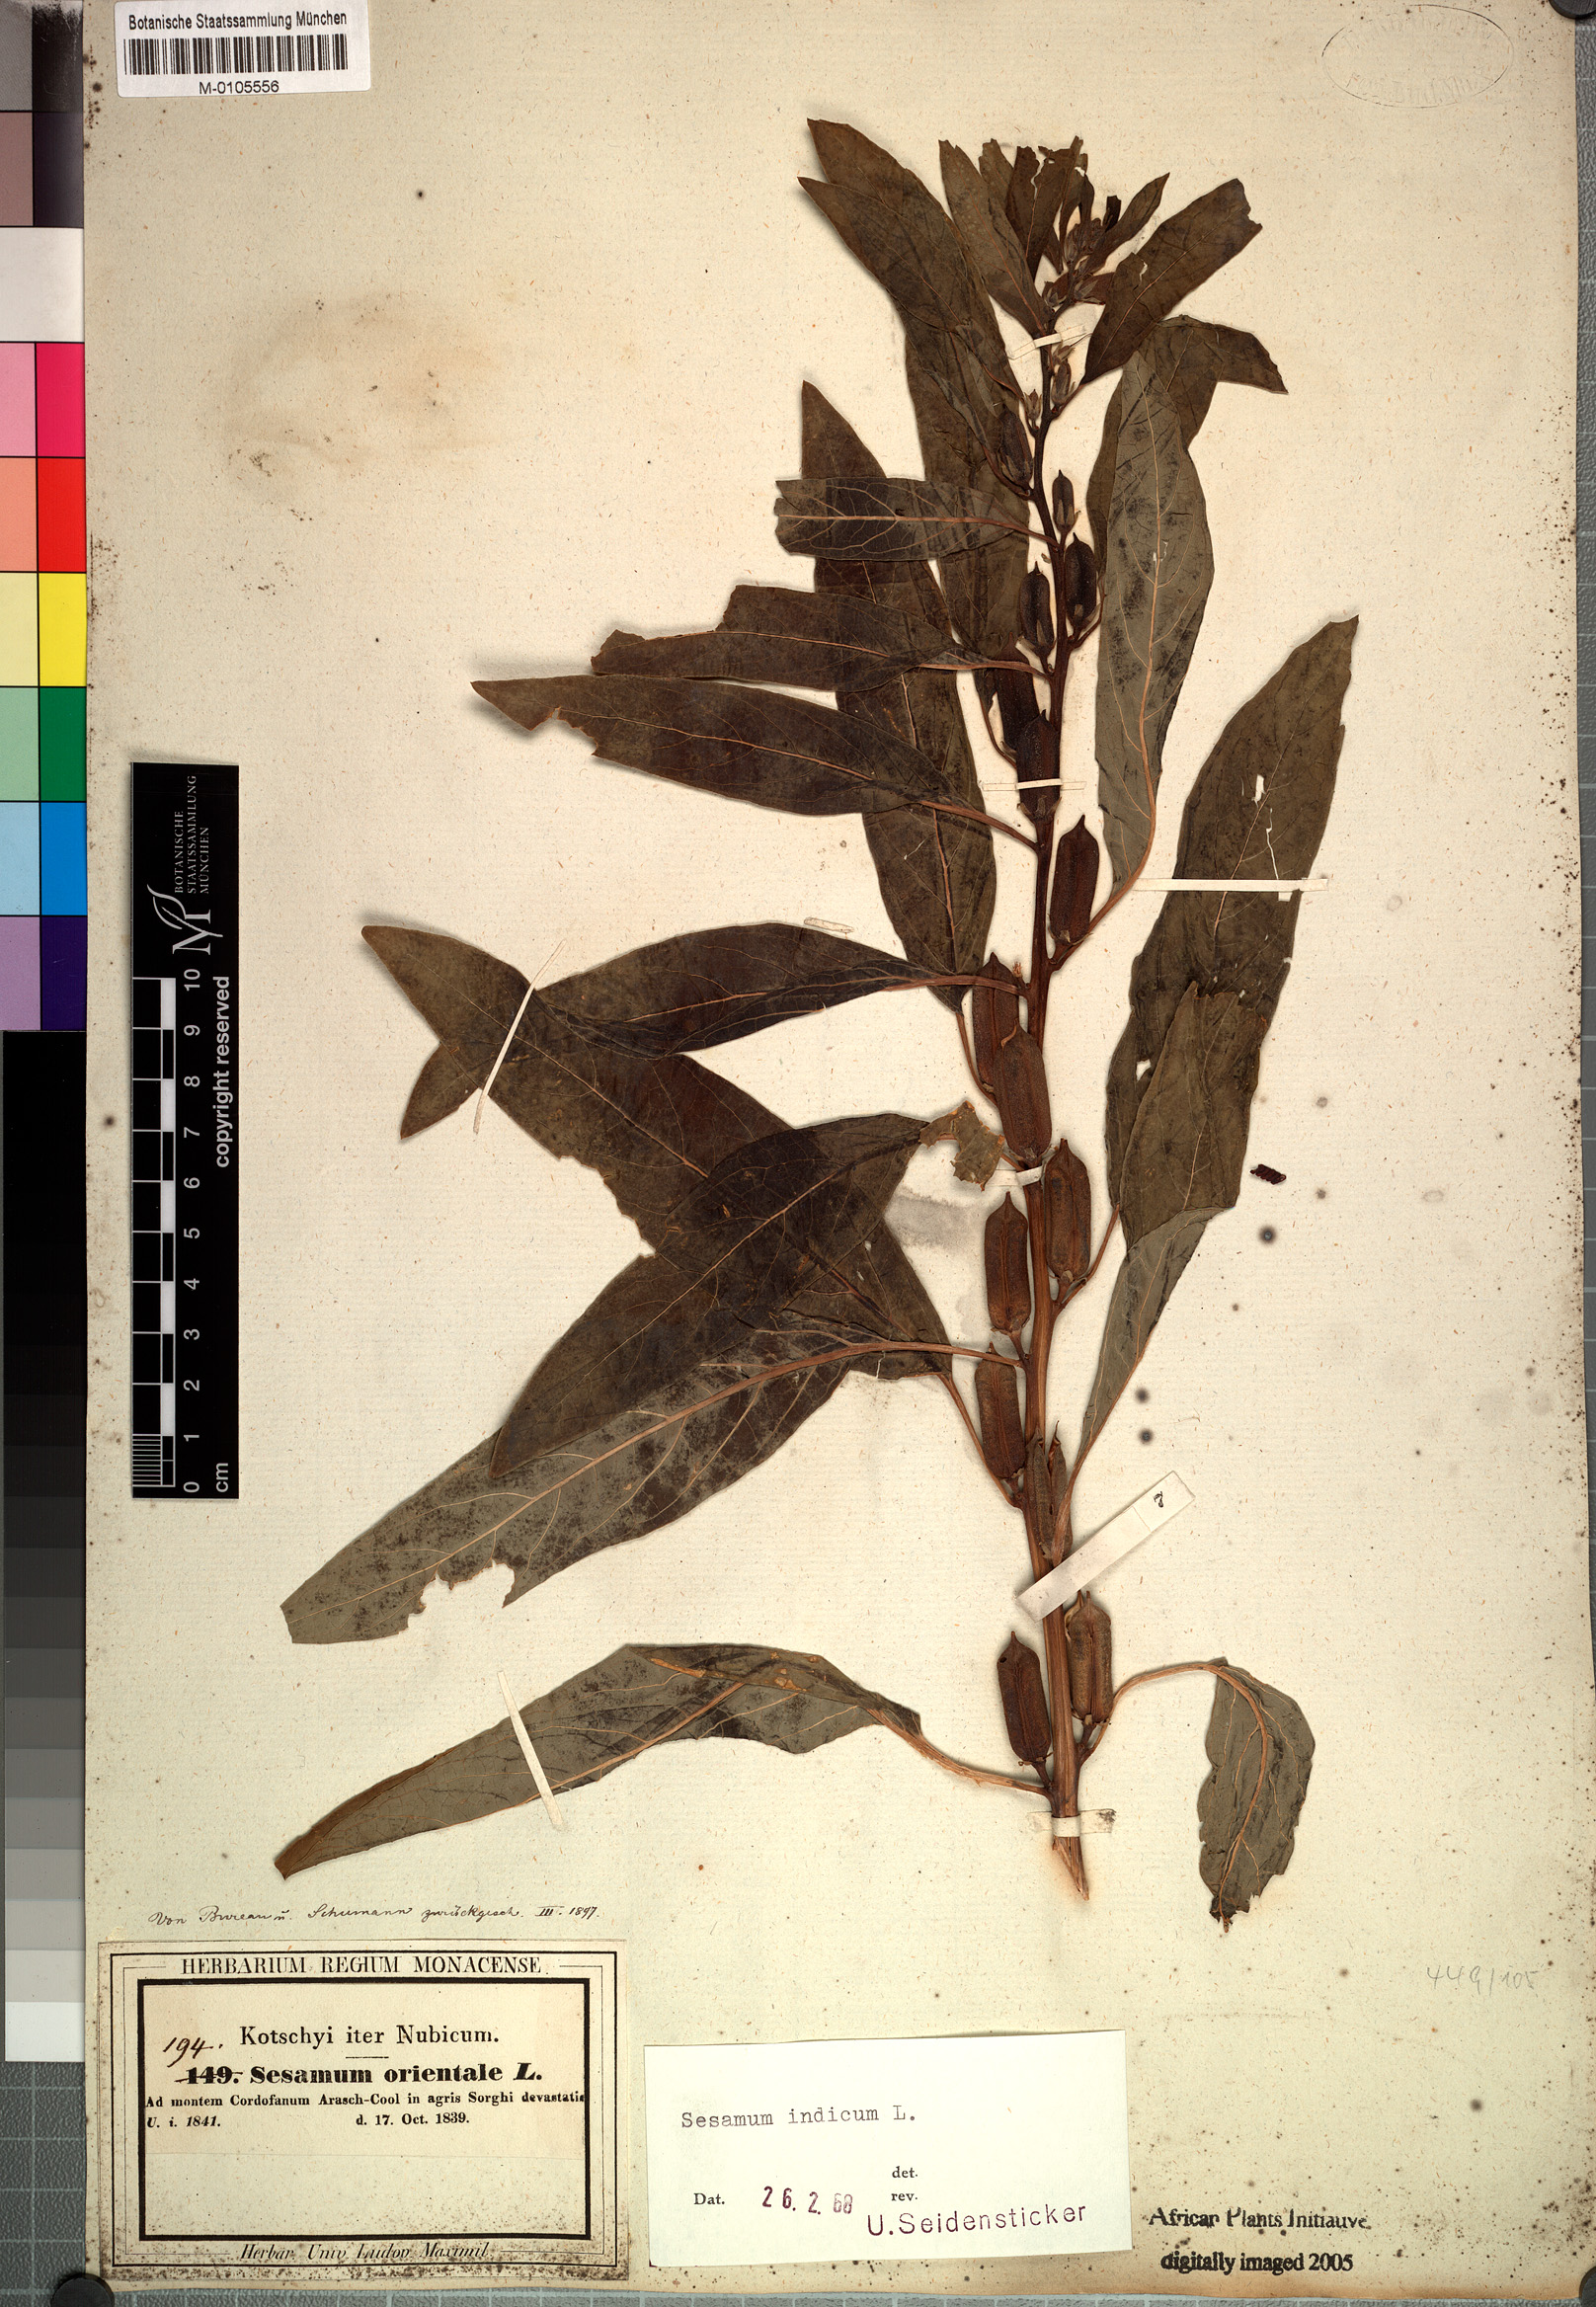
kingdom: Plantae
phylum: Tracheophyta
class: Magnoliopsida
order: Lamiales
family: Pedaliaceae
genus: Sesamum
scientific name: Sesamum indicum
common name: Sesame
